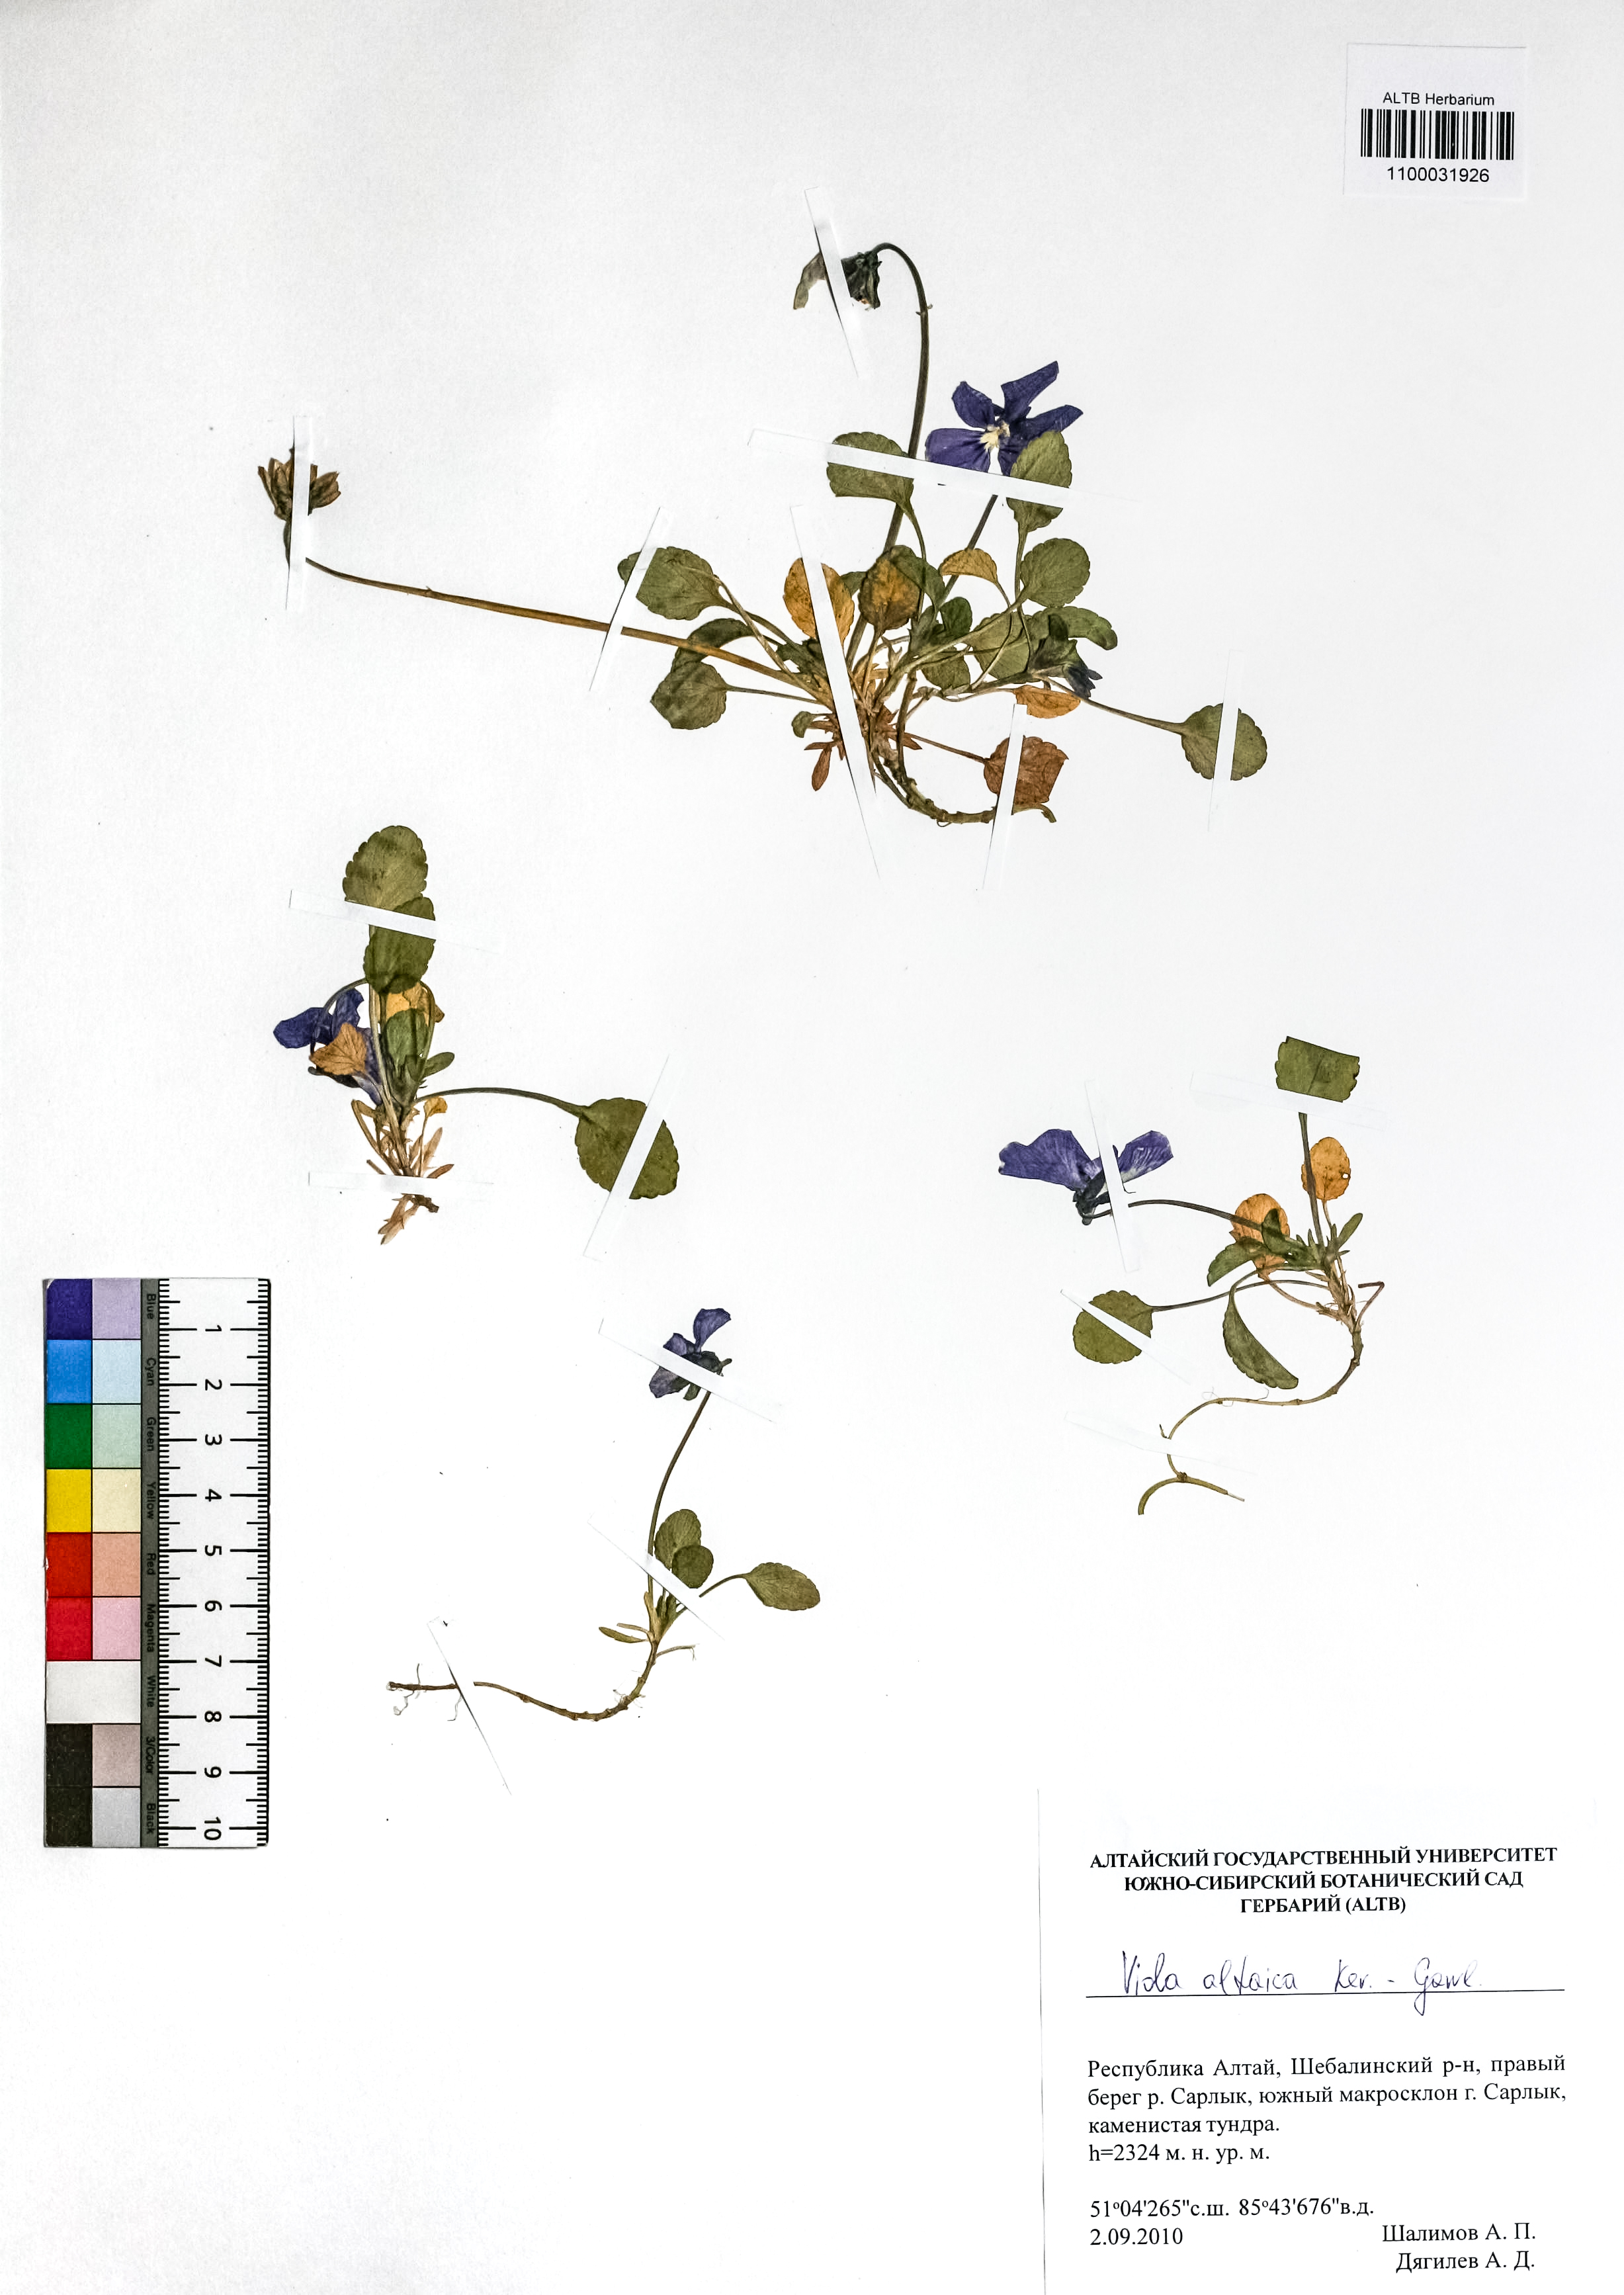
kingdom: Plantae
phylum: Tracheophyta
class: Magnoliopsida
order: Malpighiales
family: Violaceae
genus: Viola
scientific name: Viola altaica
